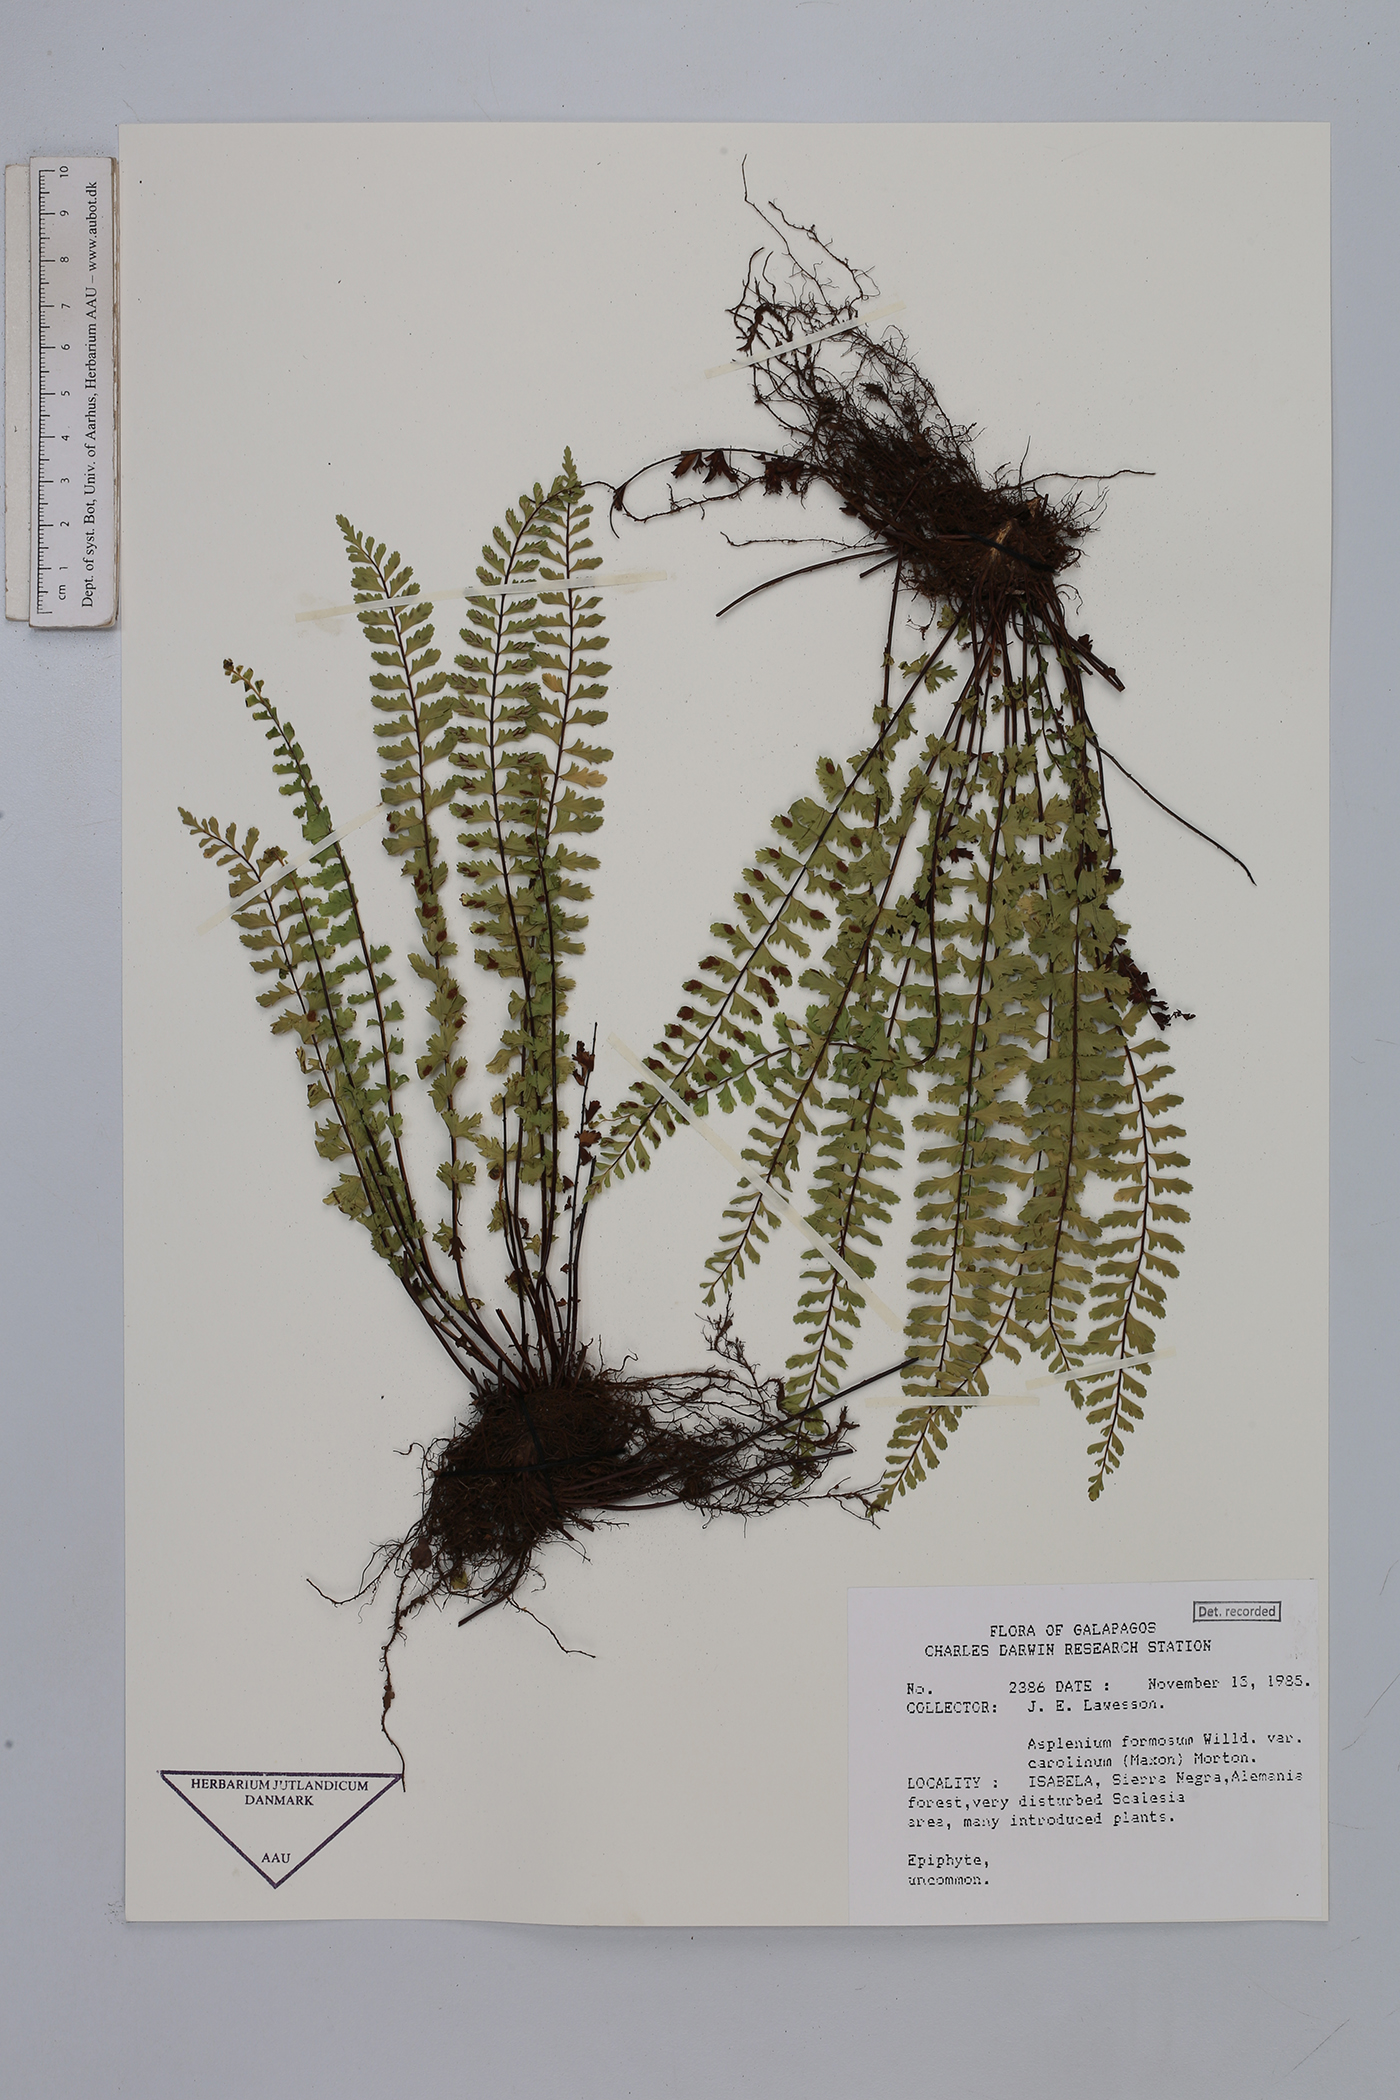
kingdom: Plantae
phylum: Tracheophyta
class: Polypodiopsida
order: Polypodiales
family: Aspleniaceae
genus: Asplenium
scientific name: Asplenium formosum
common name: Showy spleenwort
